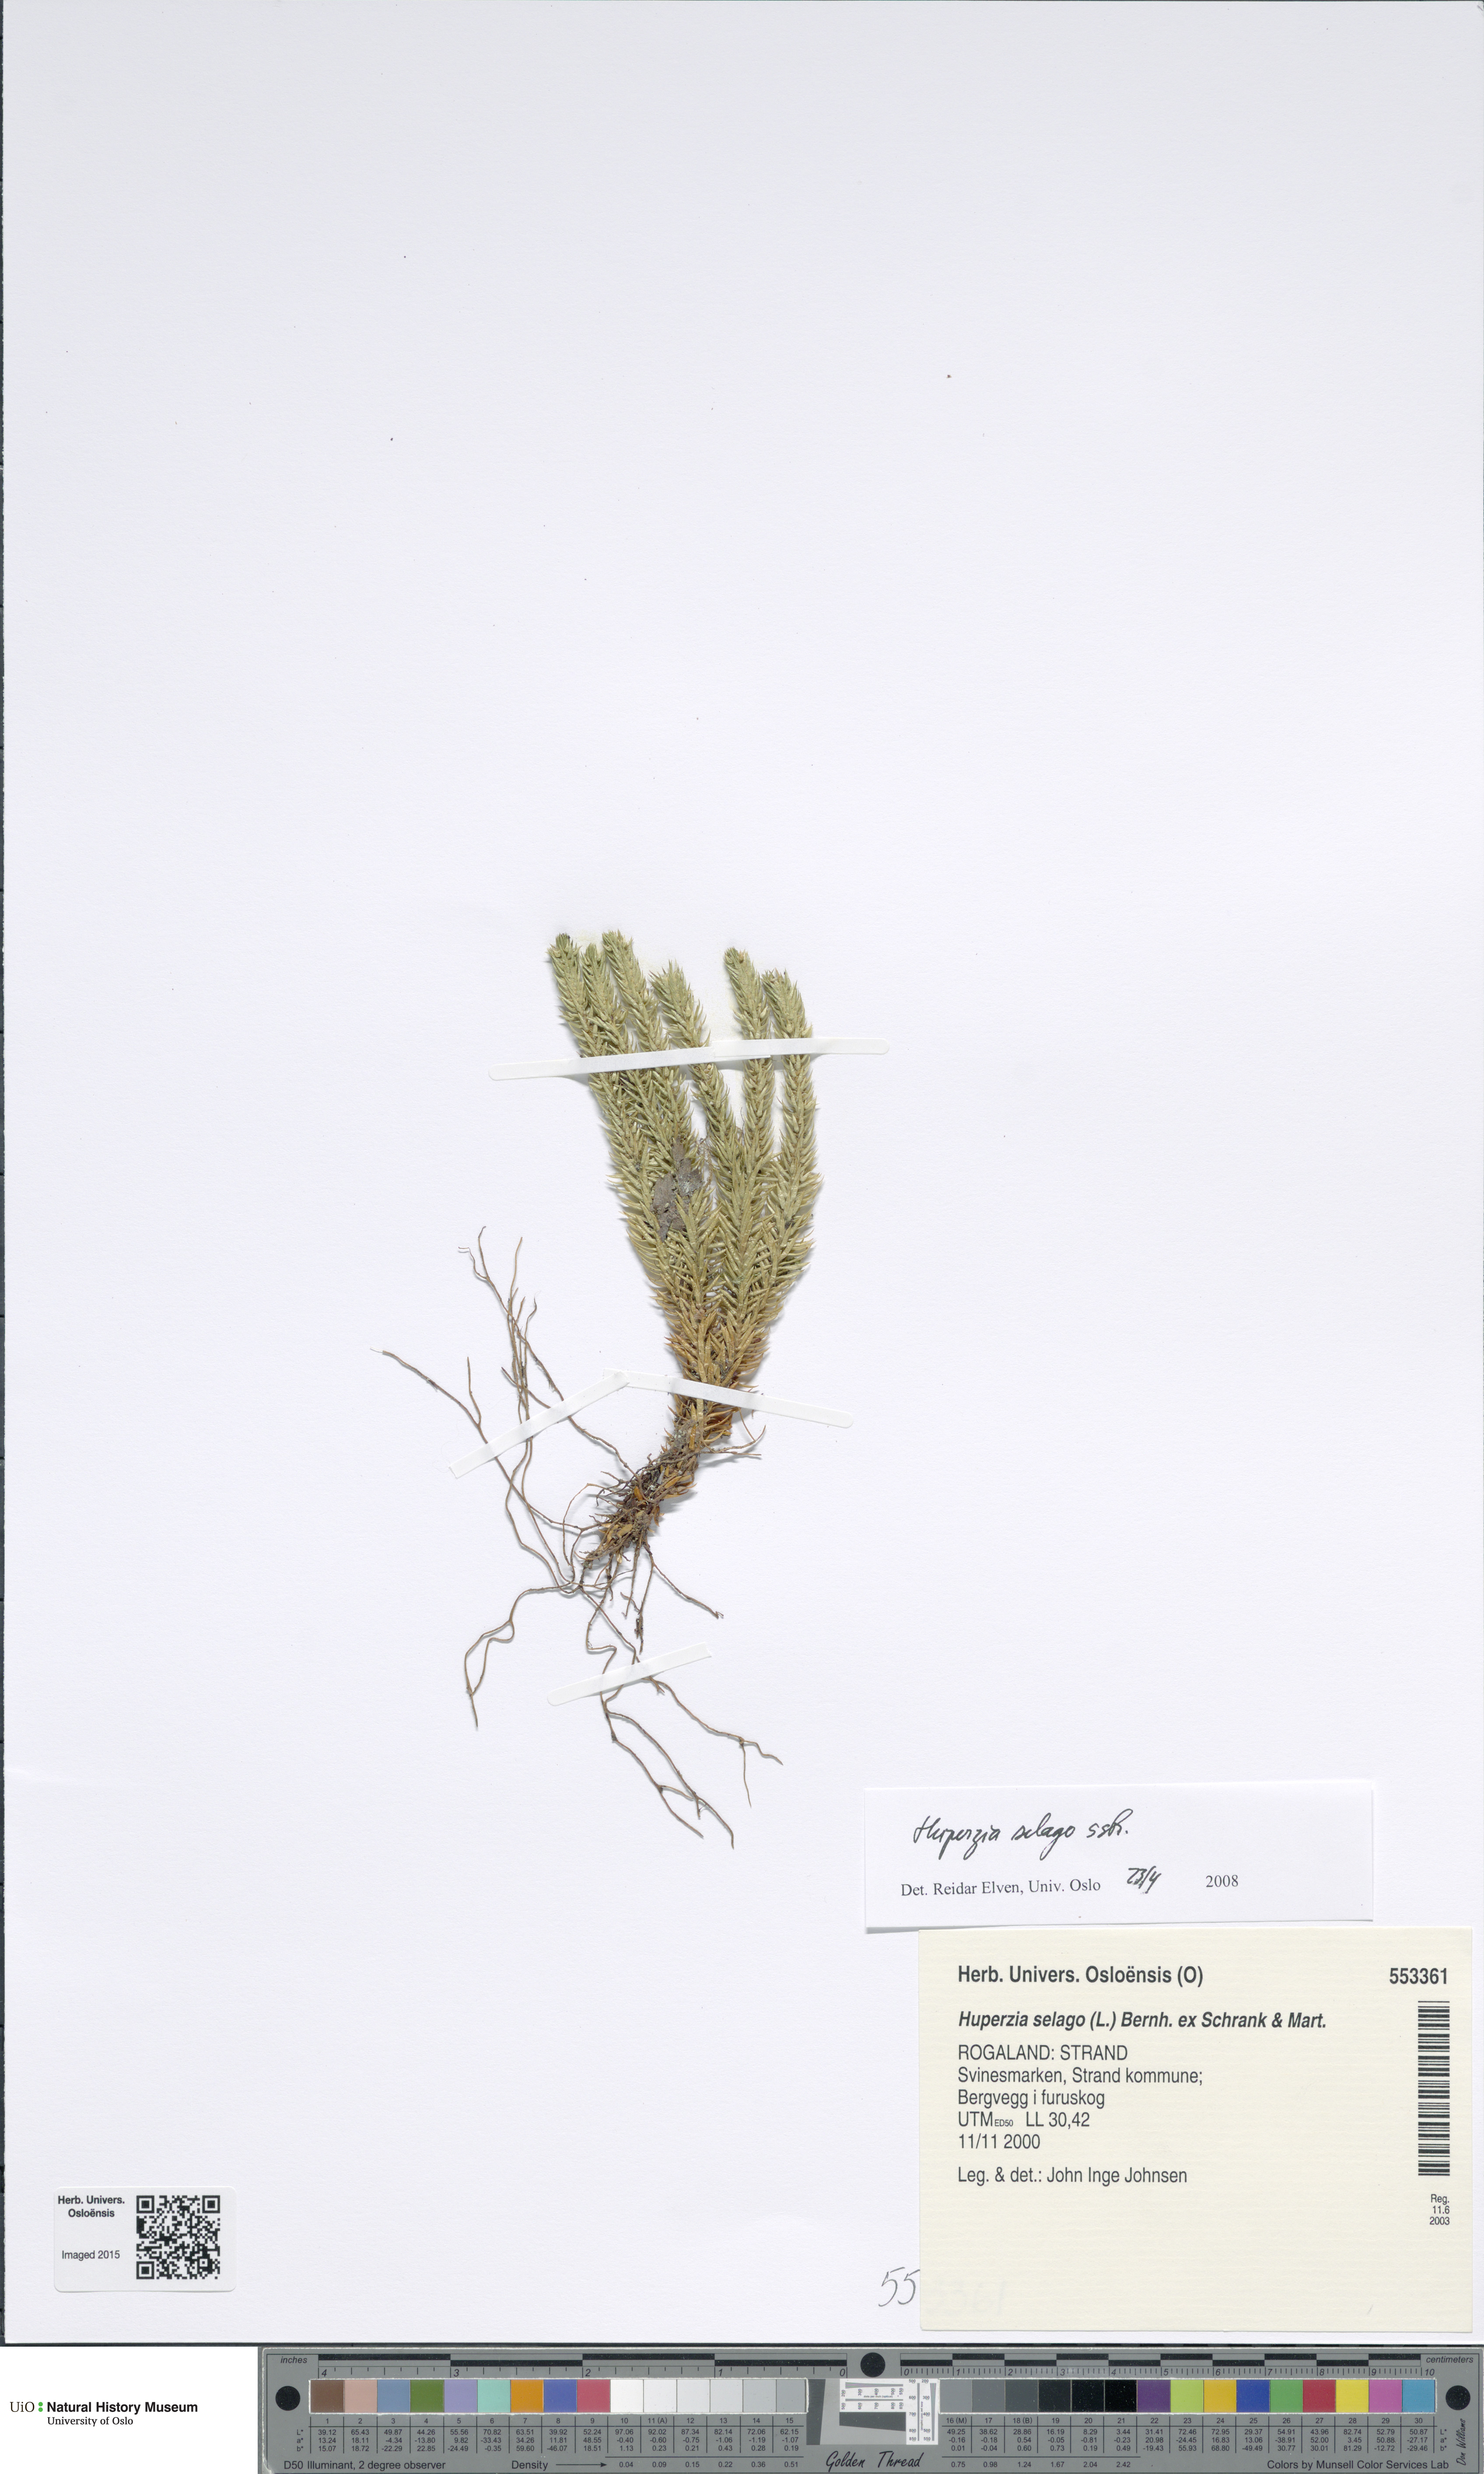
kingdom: Plantae
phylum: Tracheophyta
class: Lycopodiopsida
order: Lycopodiales
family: Lycopodiaceae
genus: Huperzia
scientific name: Huperzia selago
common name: Northern firmoss
